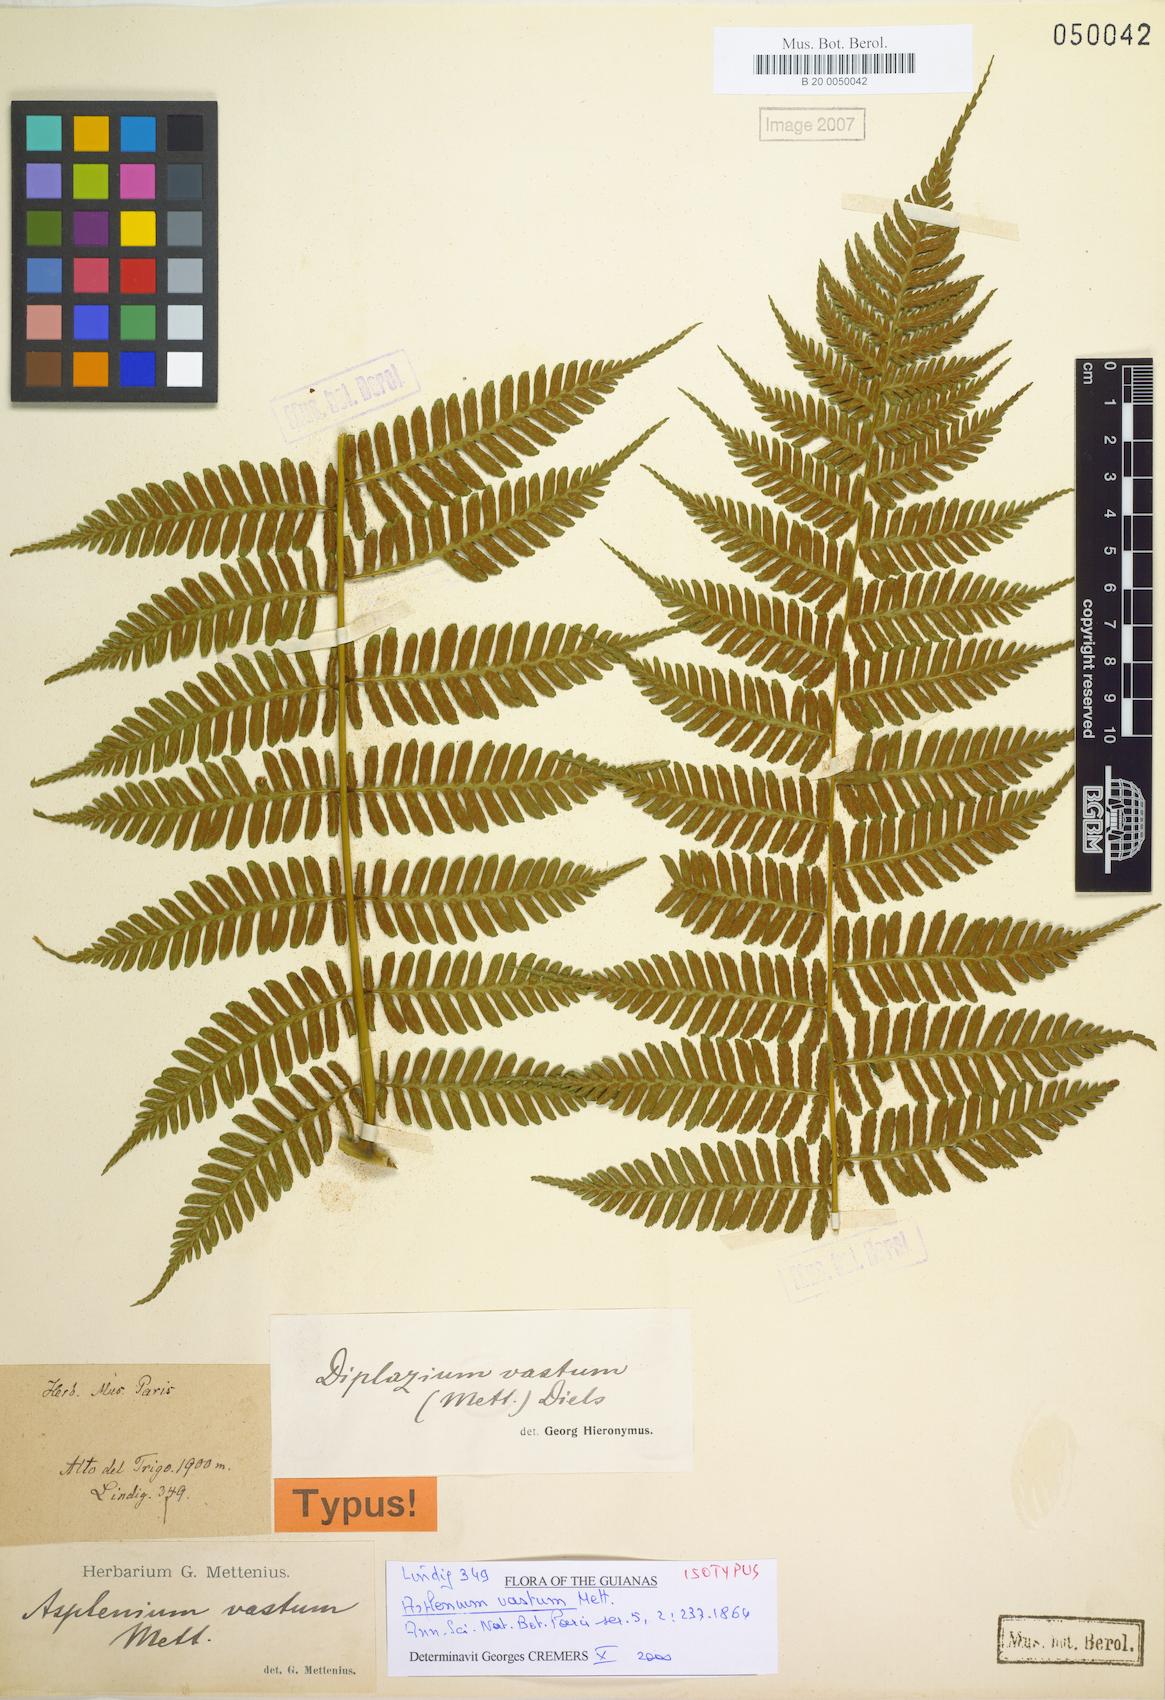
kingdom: Plantae
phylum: Tracheophyta
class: Polypodiopsida
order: Polypodiales
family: Athyriaceae
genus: Diplazium
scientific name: Diplazium vastum
